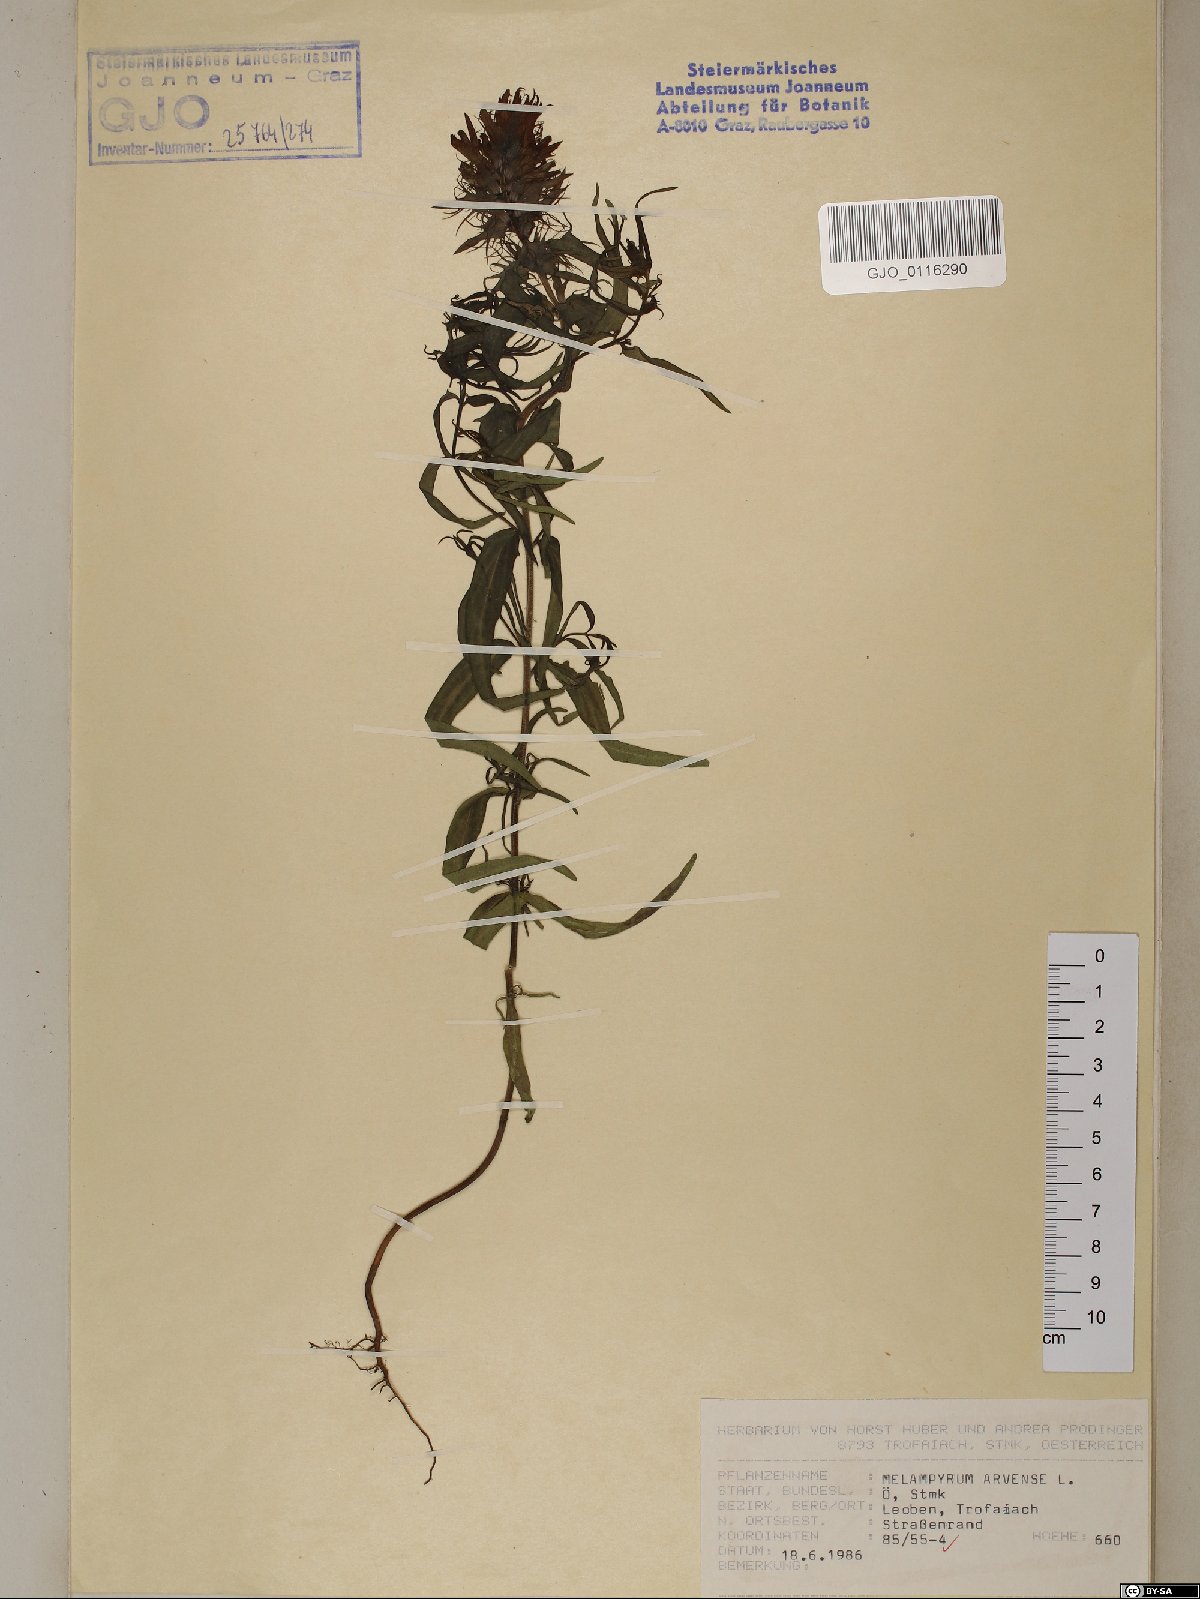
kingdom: Plantae
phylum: Tracheophyta
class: Magnoliopsida
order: Lamiales
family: Orobanchaceae
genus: Melampyrum
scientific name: Melampyrum arvense
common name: Field cow-wheat
